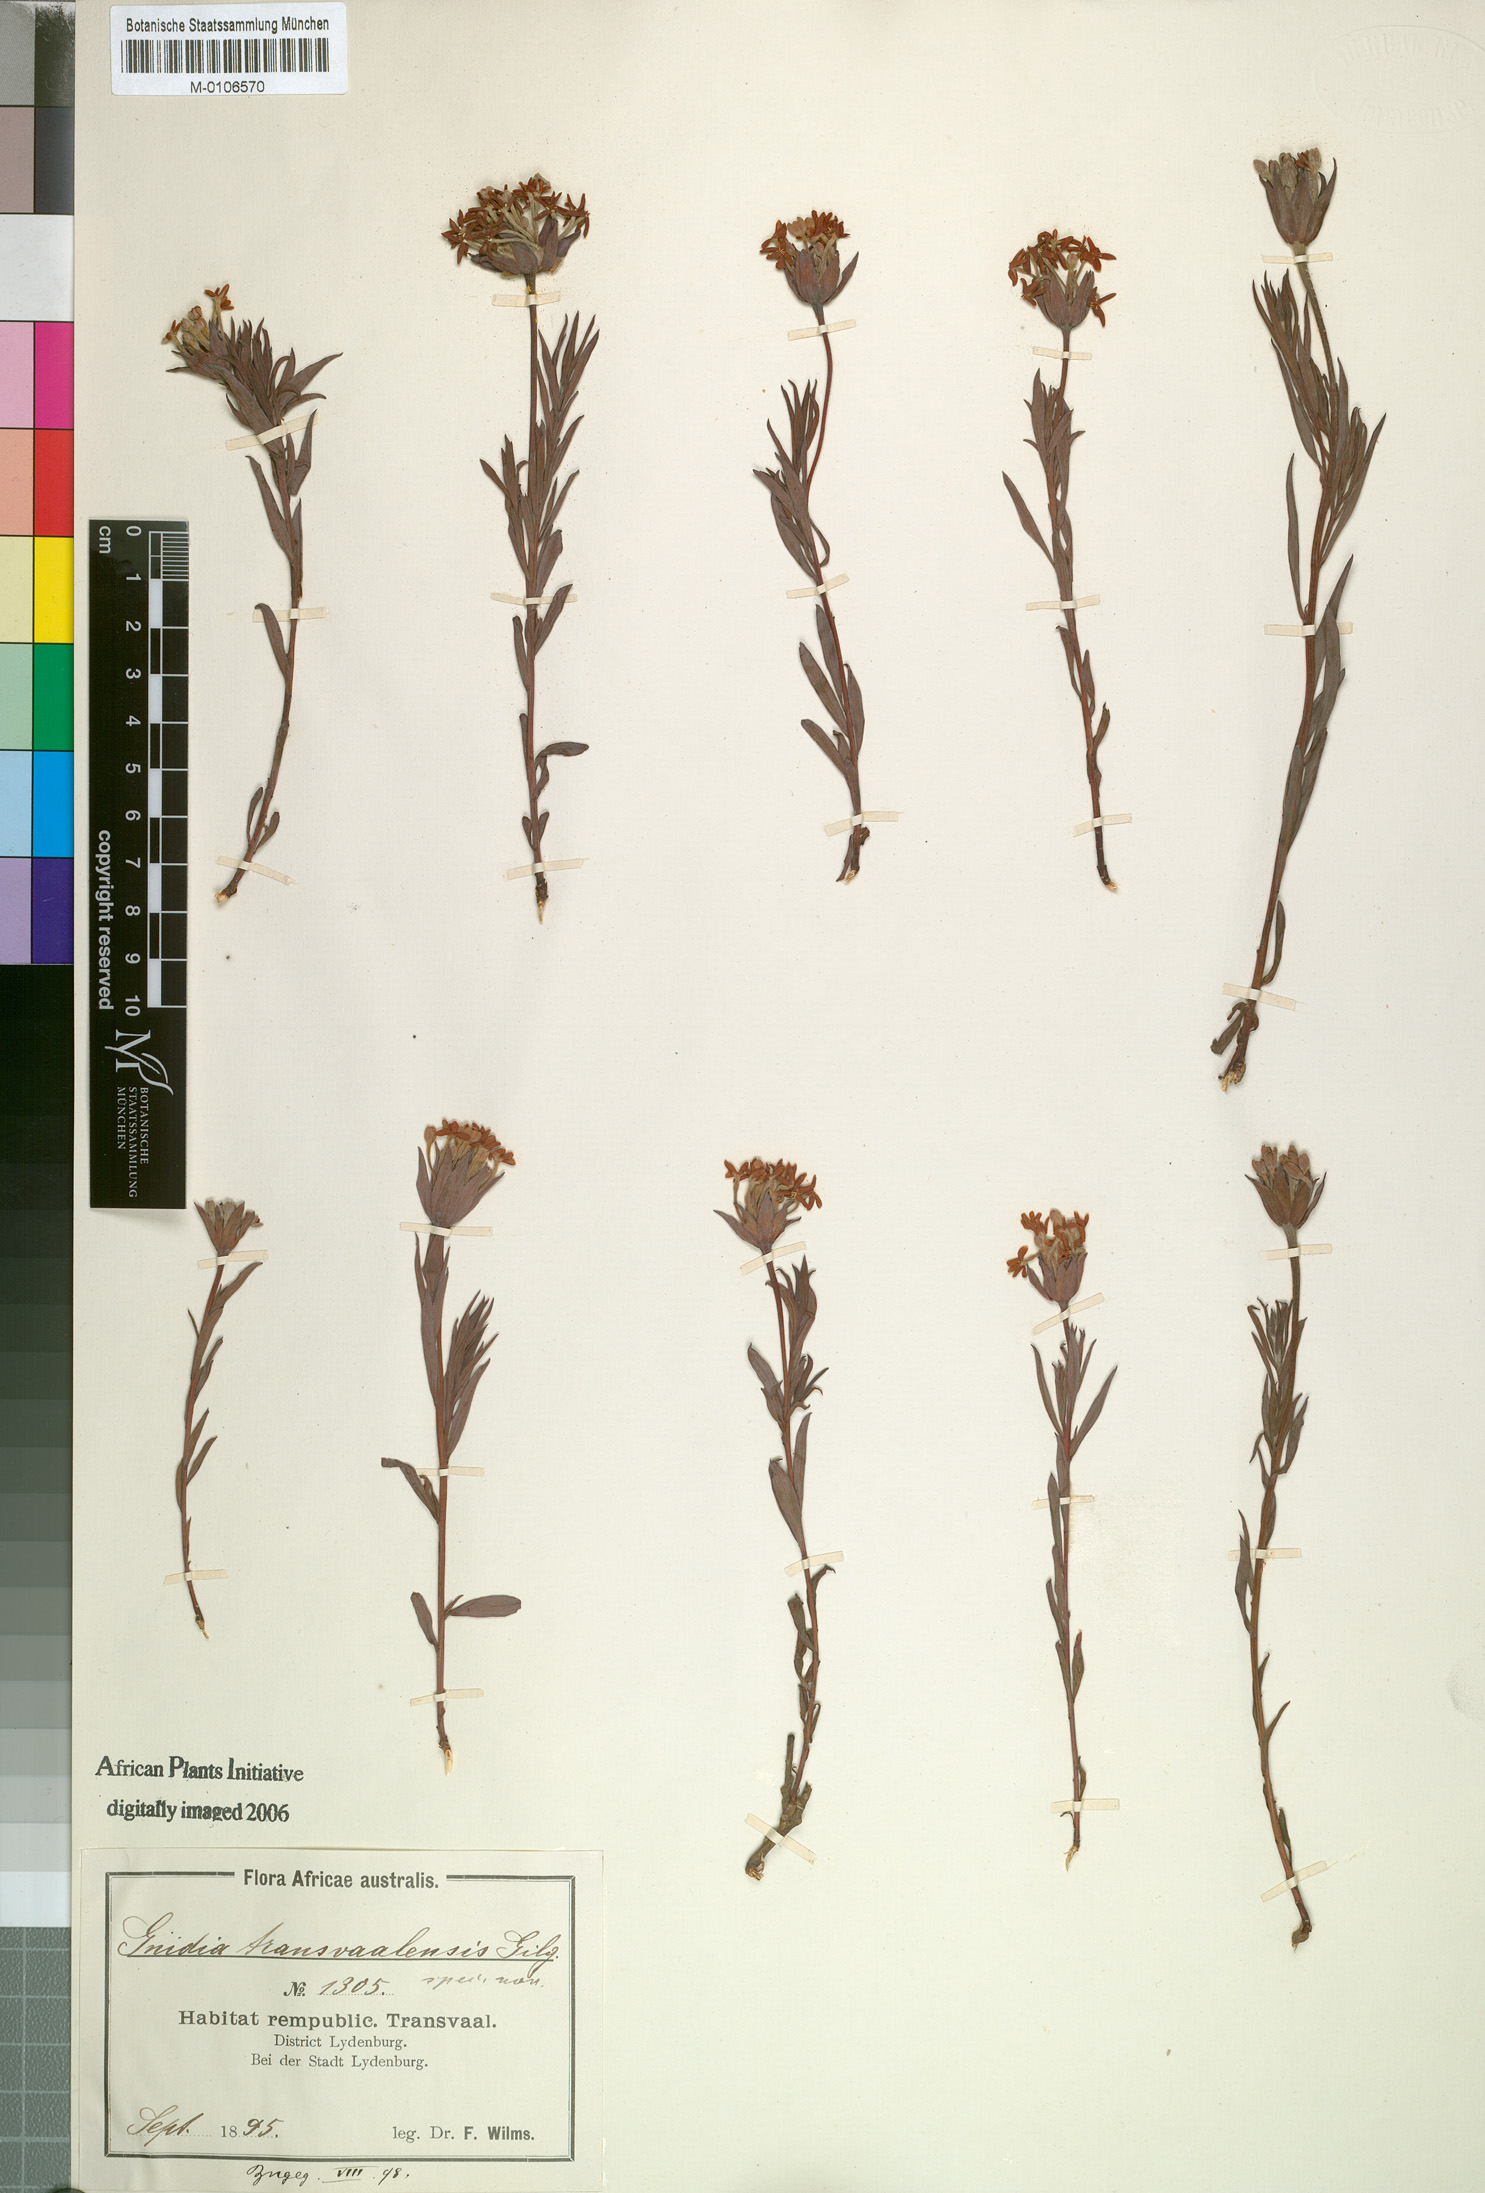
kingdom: Plantae
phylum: Tracheophyta
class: Magnoliopsida
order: Malvales
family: Thymelaeaceae
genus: Gnidia
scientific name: Gnidia capitata
